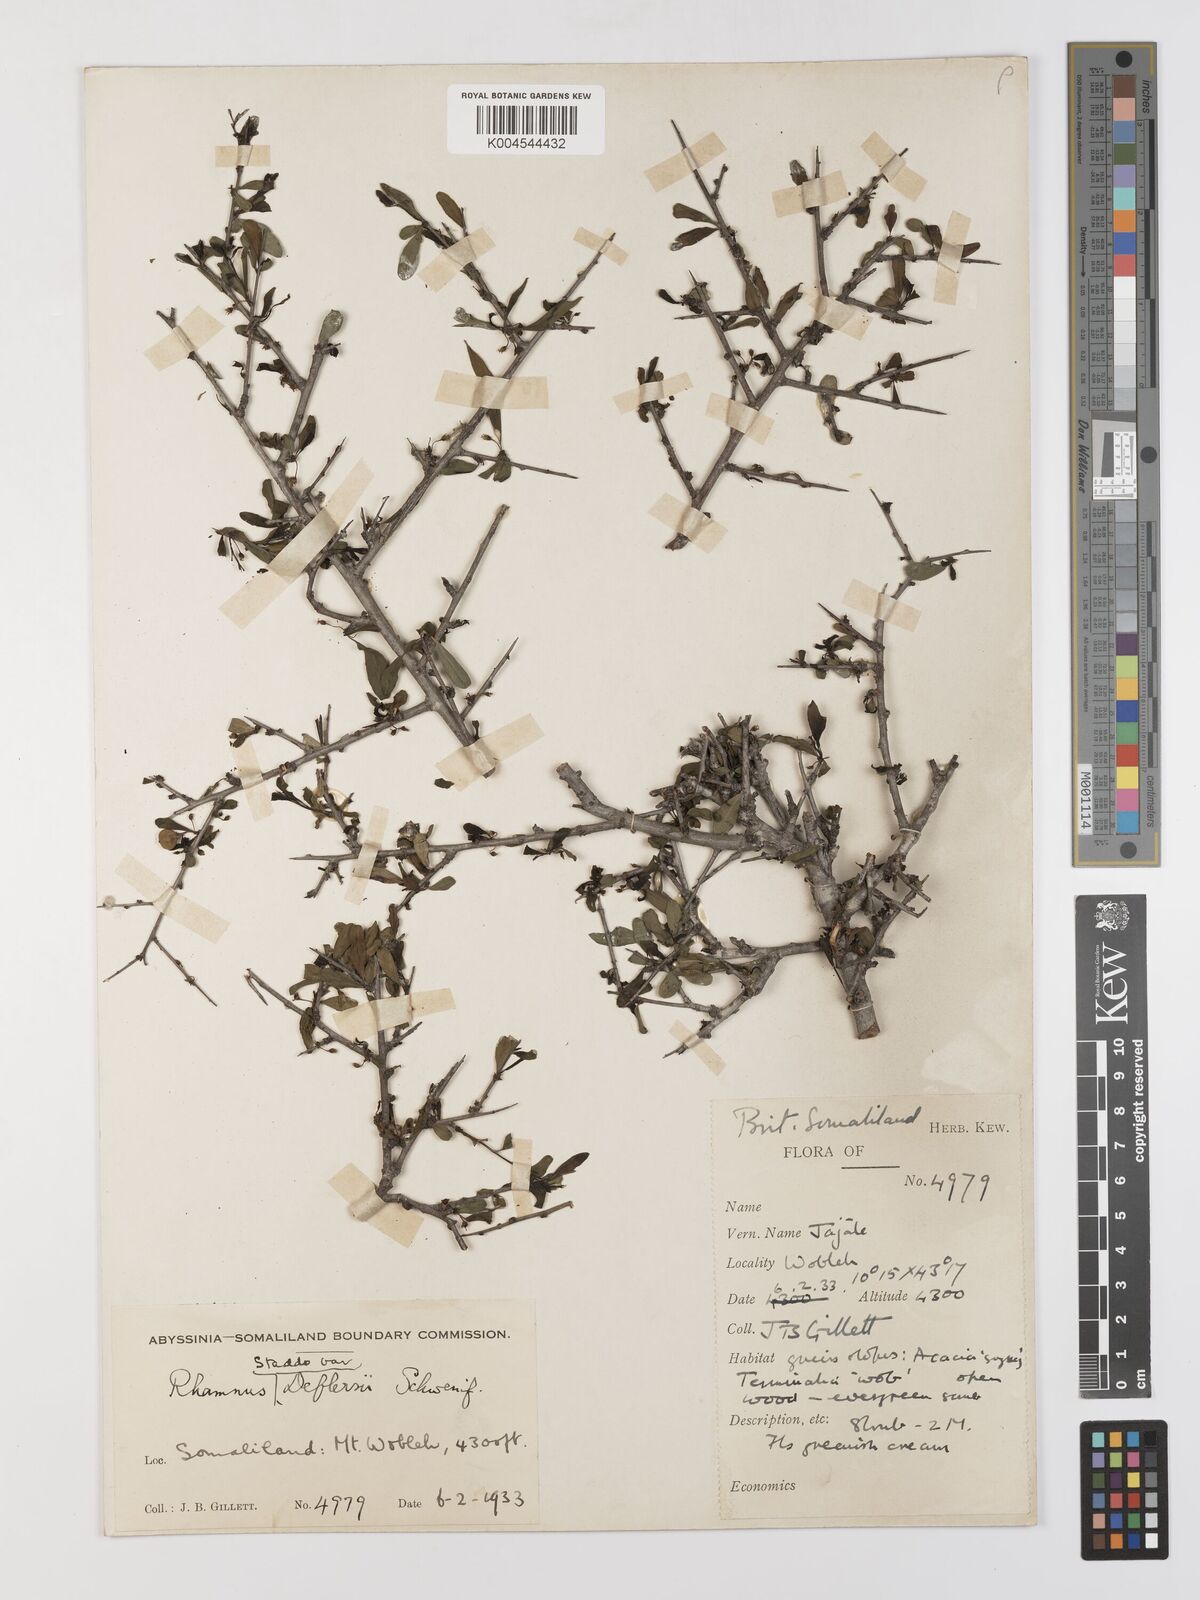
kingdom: Plantae
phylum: Tracheophyta
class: Magnoliopsida
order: Rosales
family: Rhamnaceae
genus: Rhamnus
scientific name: Rhamnus staddo
